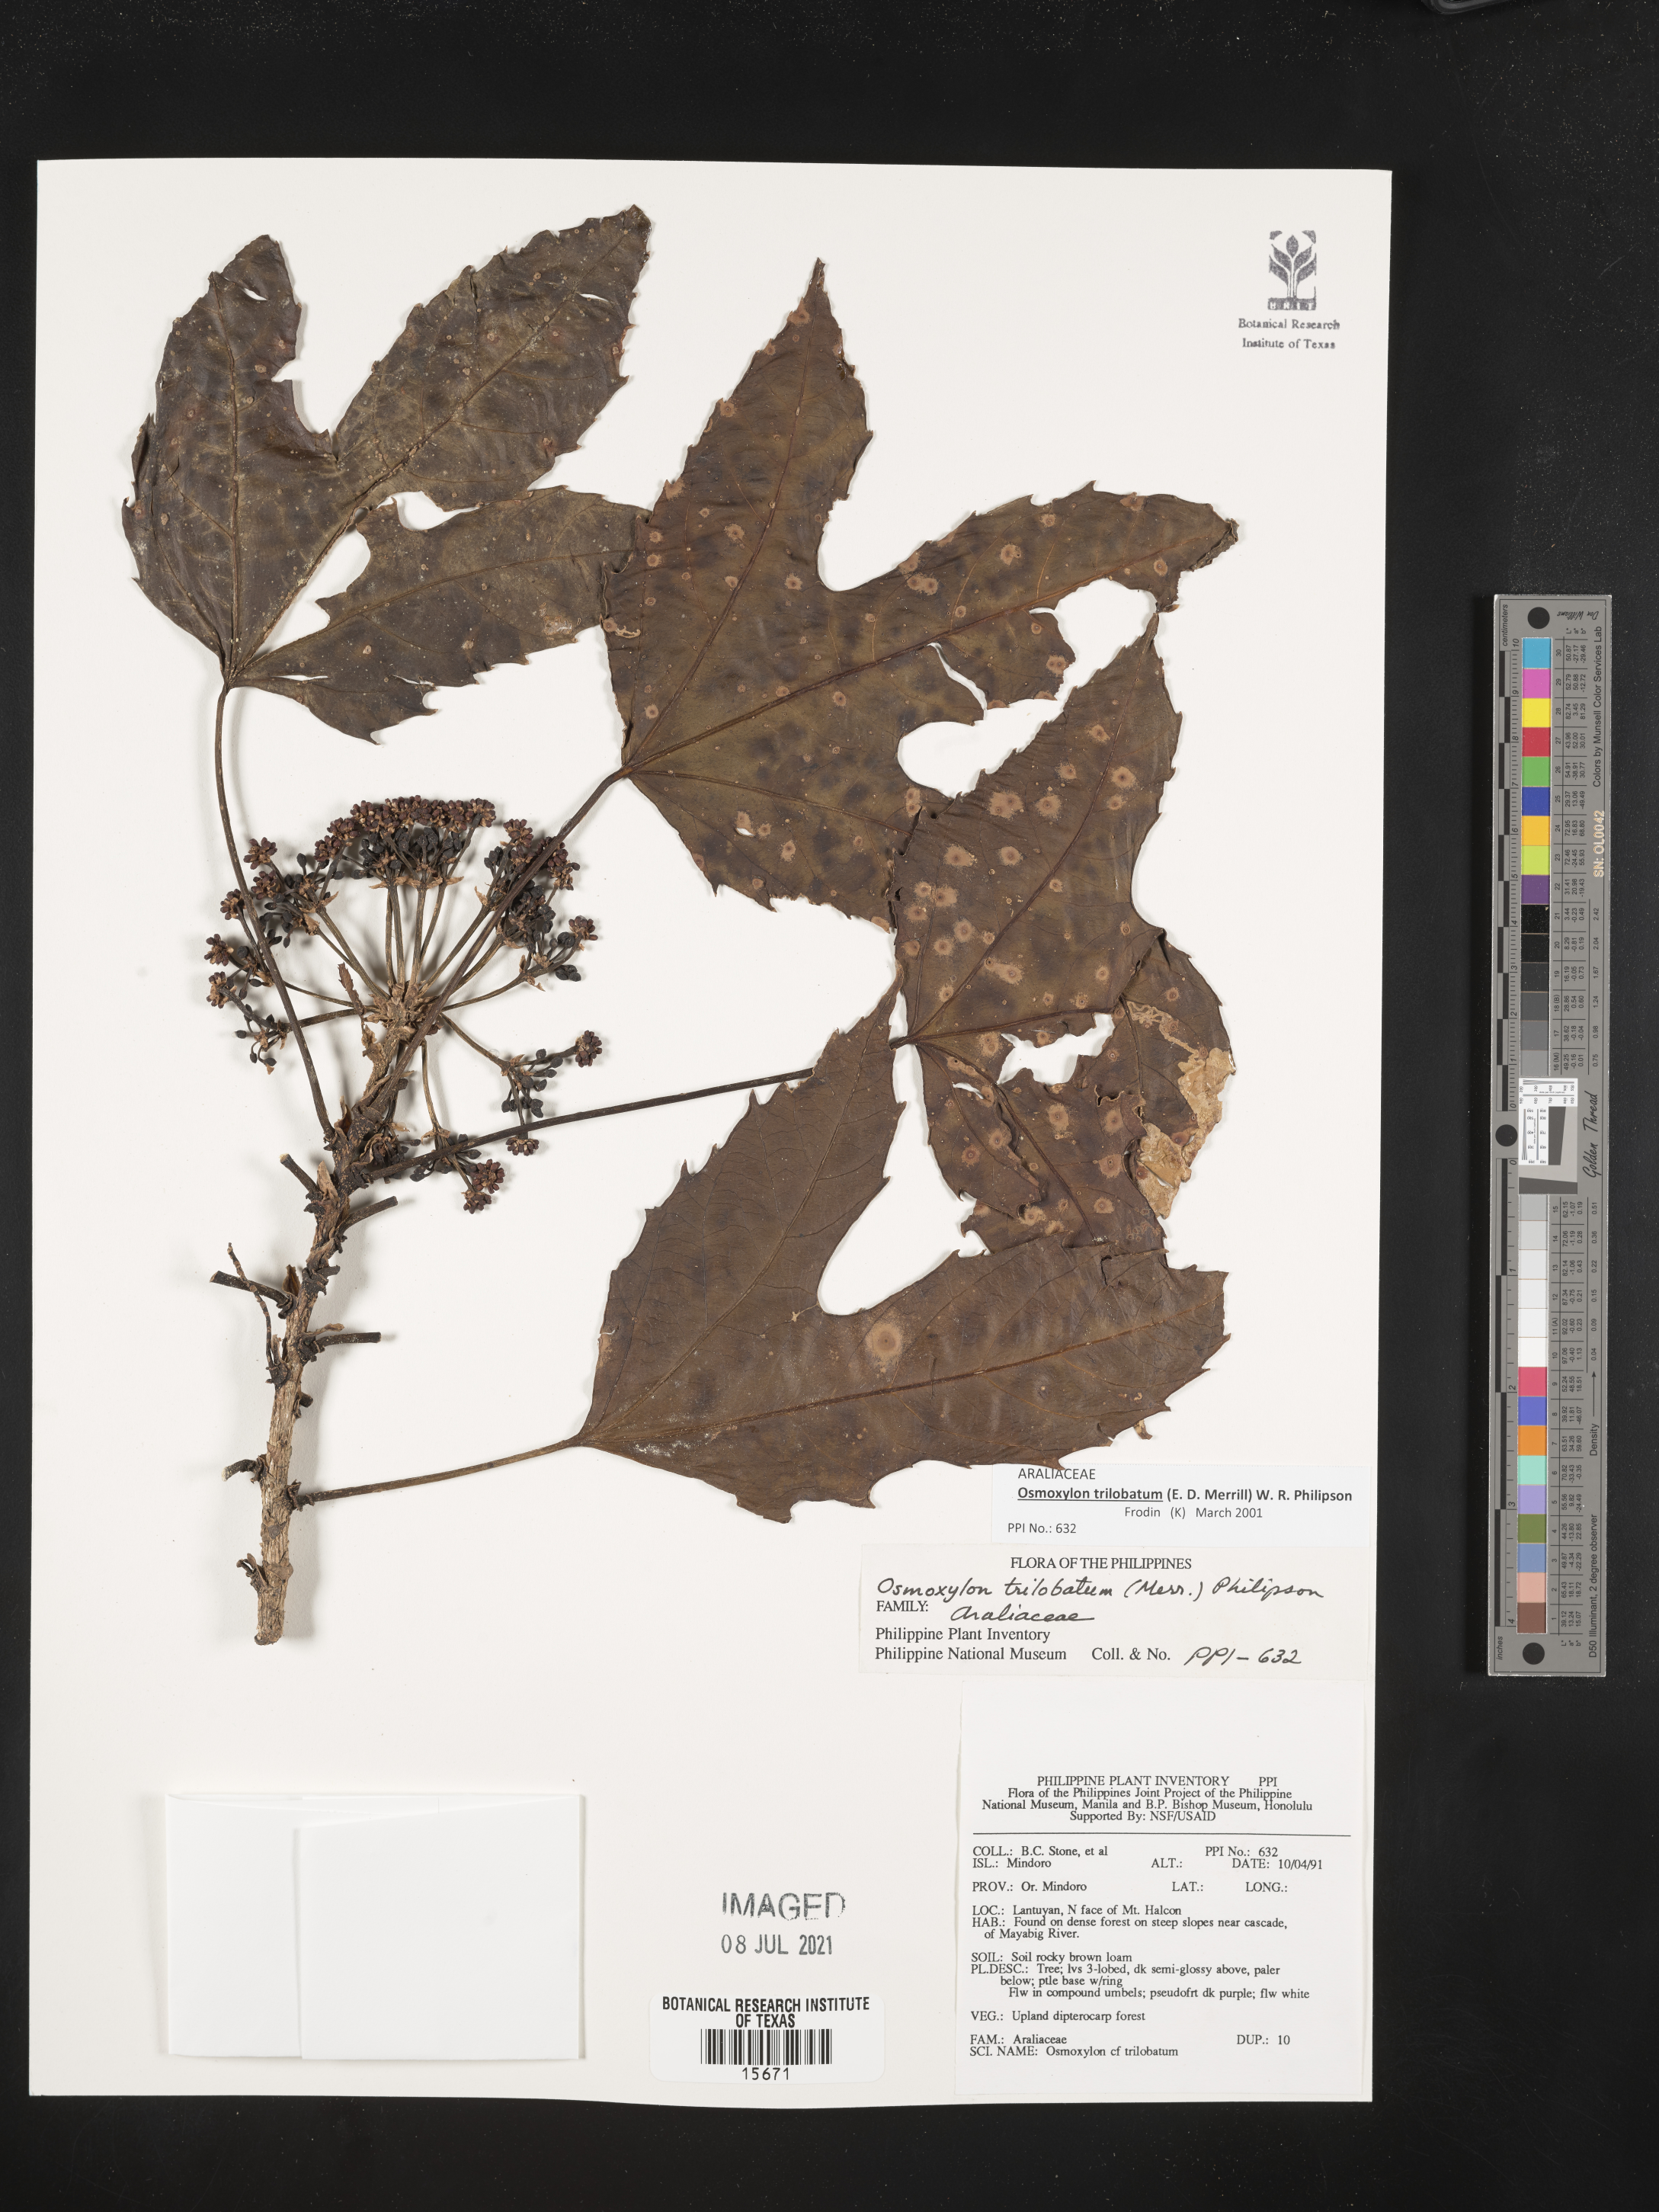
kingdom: Plantae
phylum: Tracheophyta
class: Magnoliopsida
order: Apiales
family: Araliaceae
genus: Osmoxylon
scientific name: Osmoxylon trilobatum
